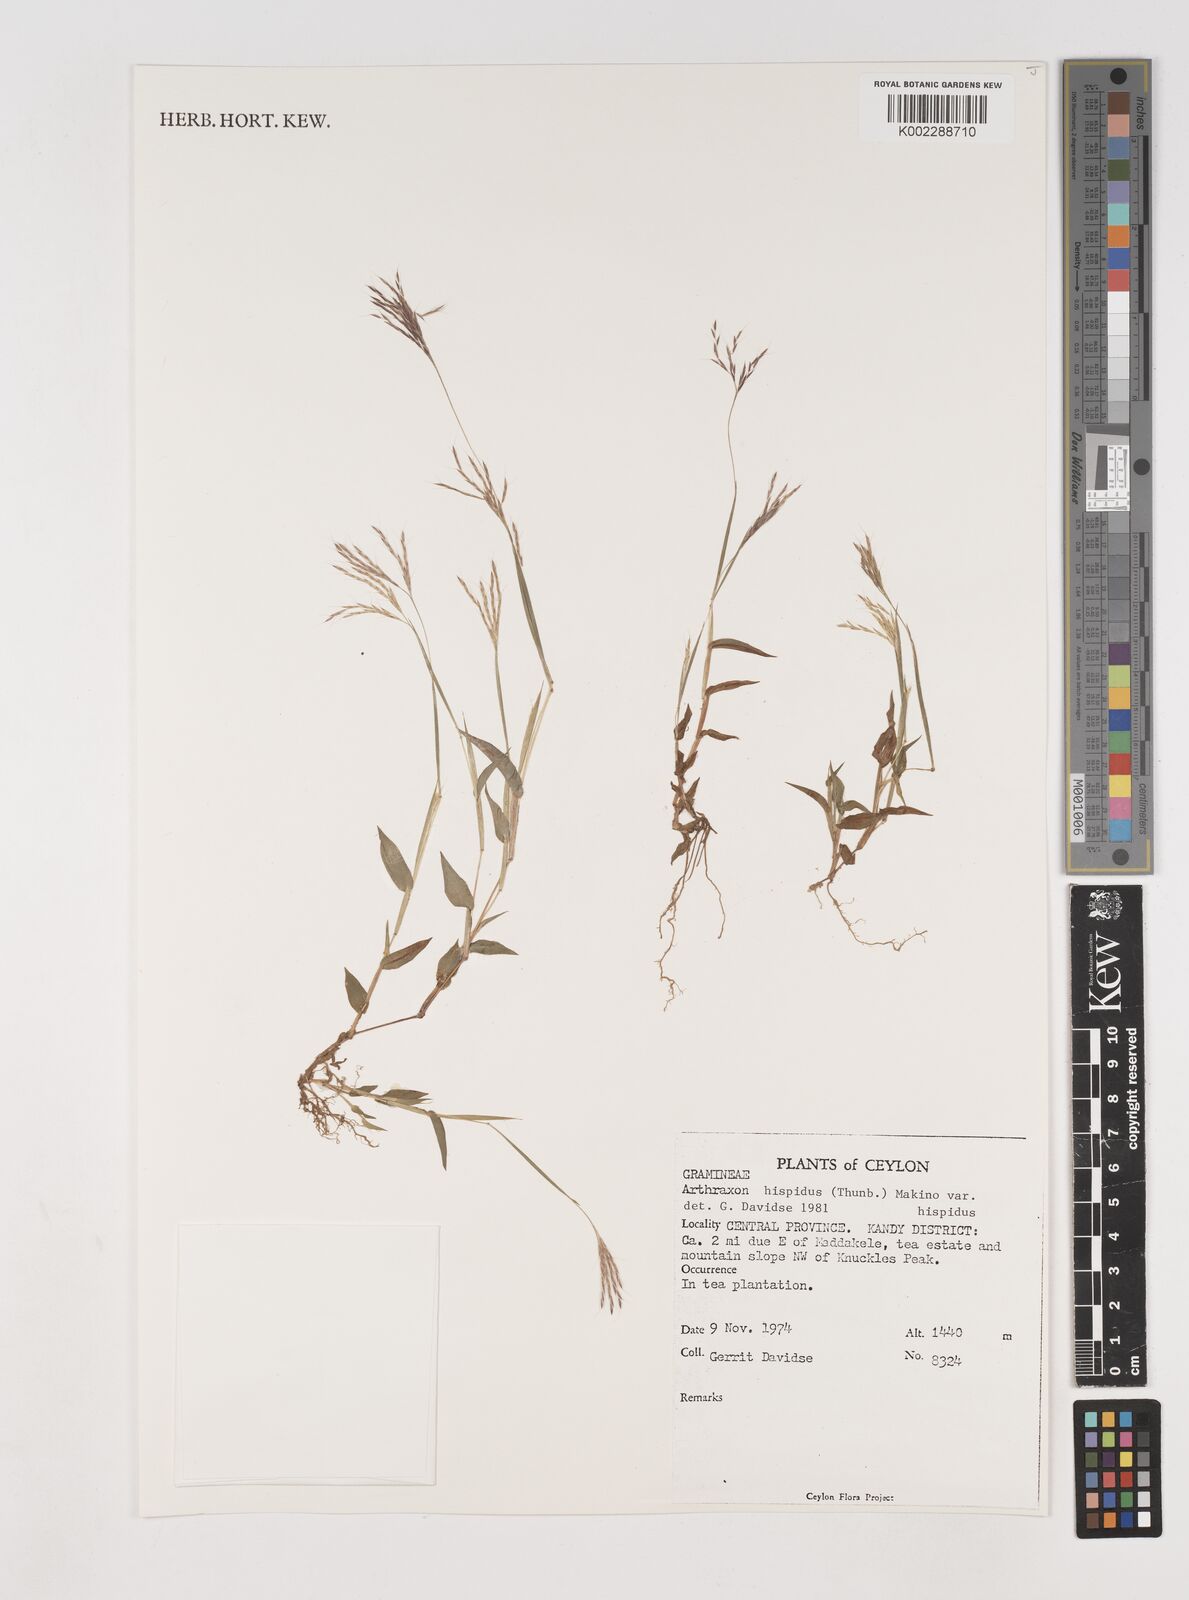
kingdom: Plantae
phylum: Tracheophyta
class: Liliopsida
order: Poales
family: Poaceae
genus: Arthraxon
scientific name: Arthraxon hispidus
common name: Small carpgrass
